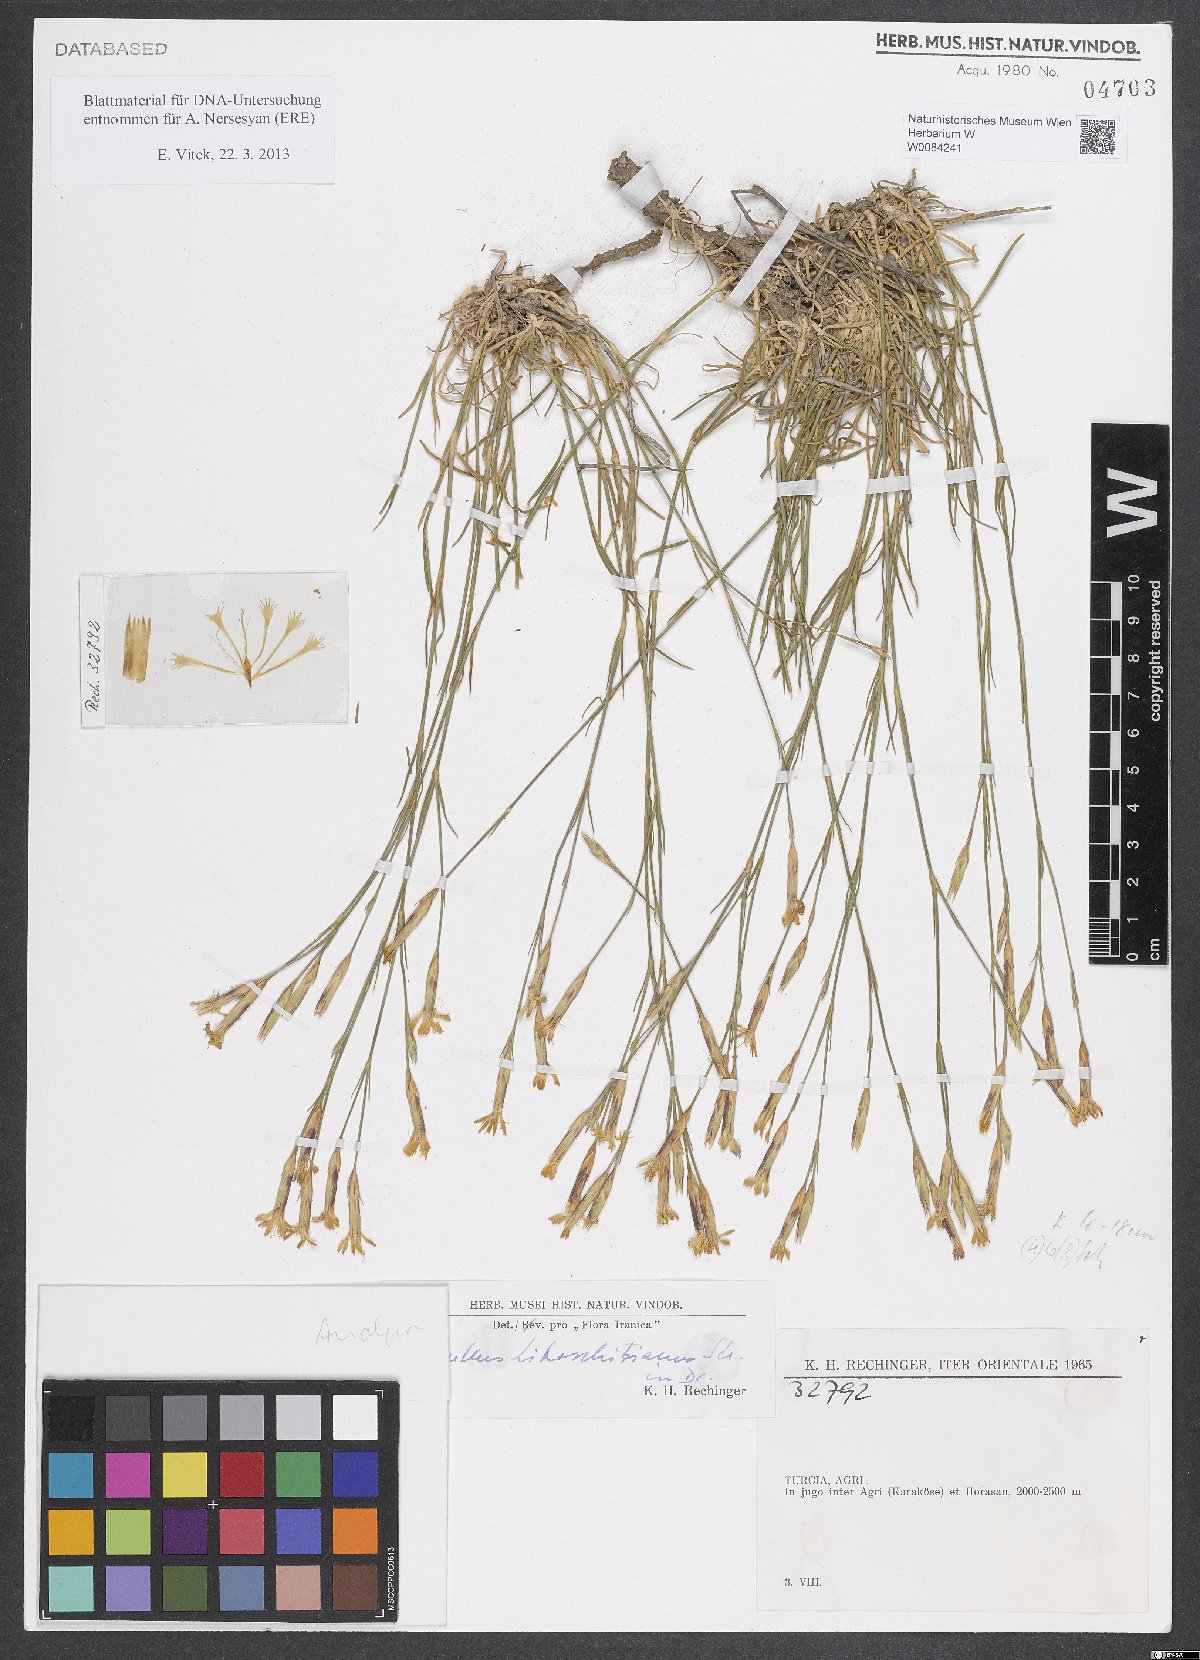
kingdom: Plantae
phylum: Tracheophyta
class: Magnoliopsida
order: Caryophyllales
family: Caryophyllaceae
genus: Dianthus
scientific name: Dianthus cretaceus
